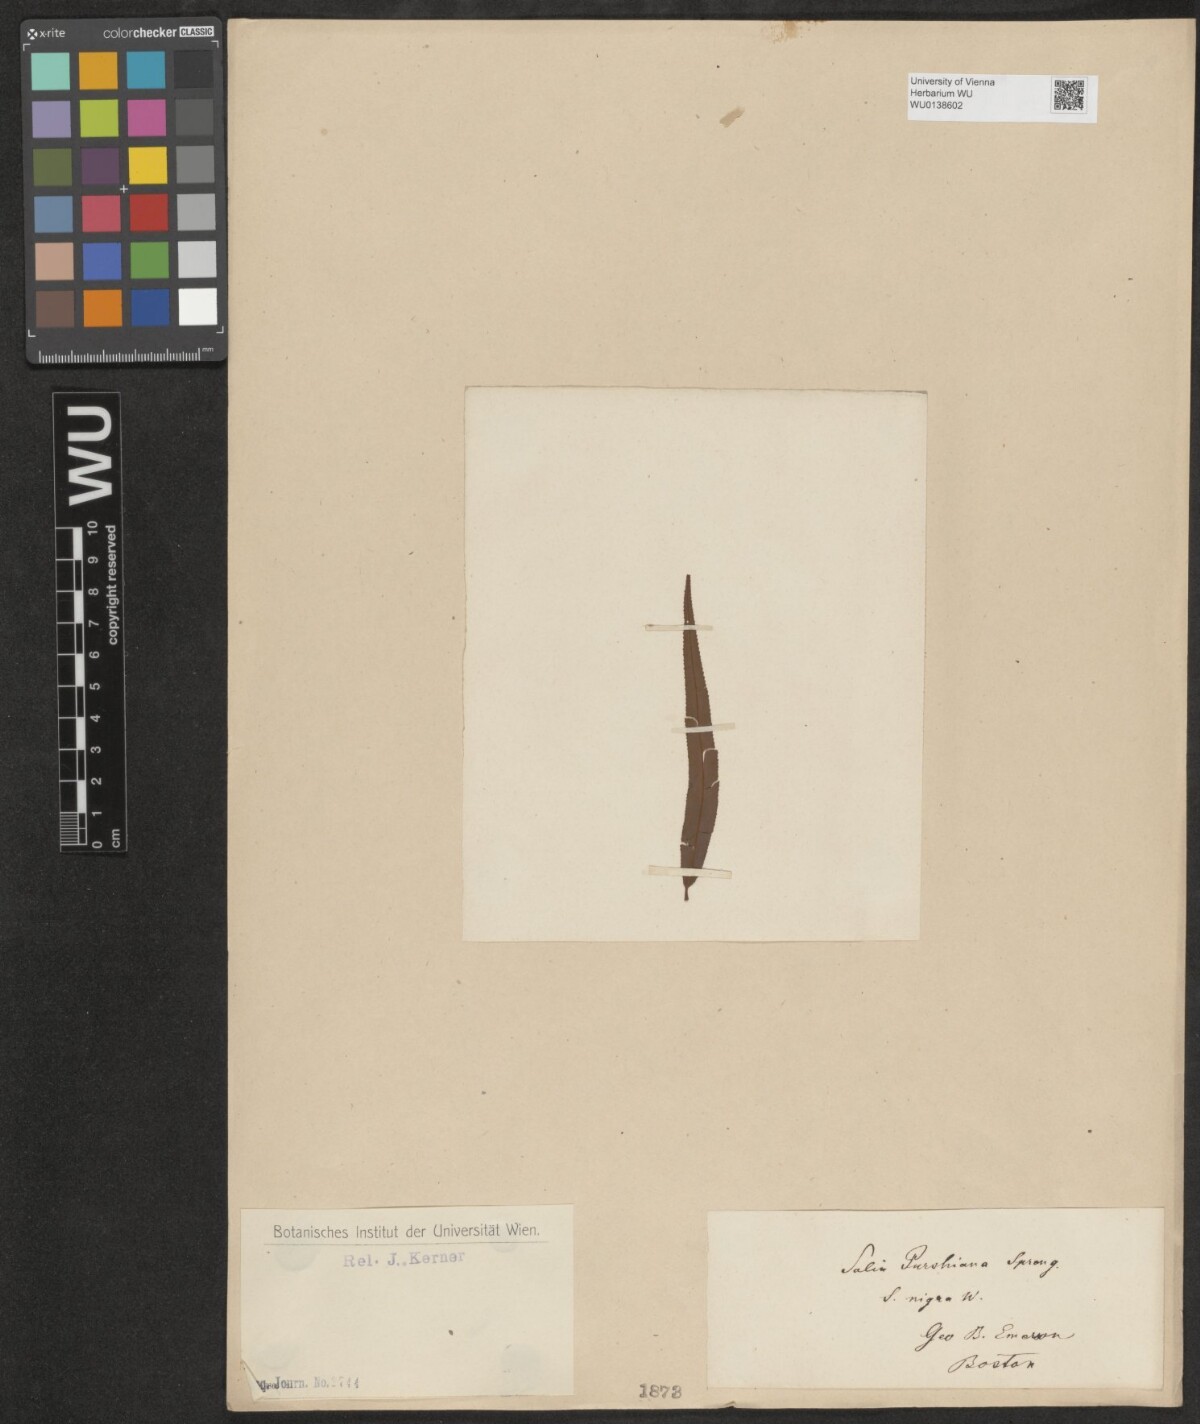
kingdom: Plantae
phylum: Tracheophyta
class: Magnoliopsida
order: Malpighiales
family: Salicaceae
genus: Salix
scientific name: Salix nigra
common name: Black willow
